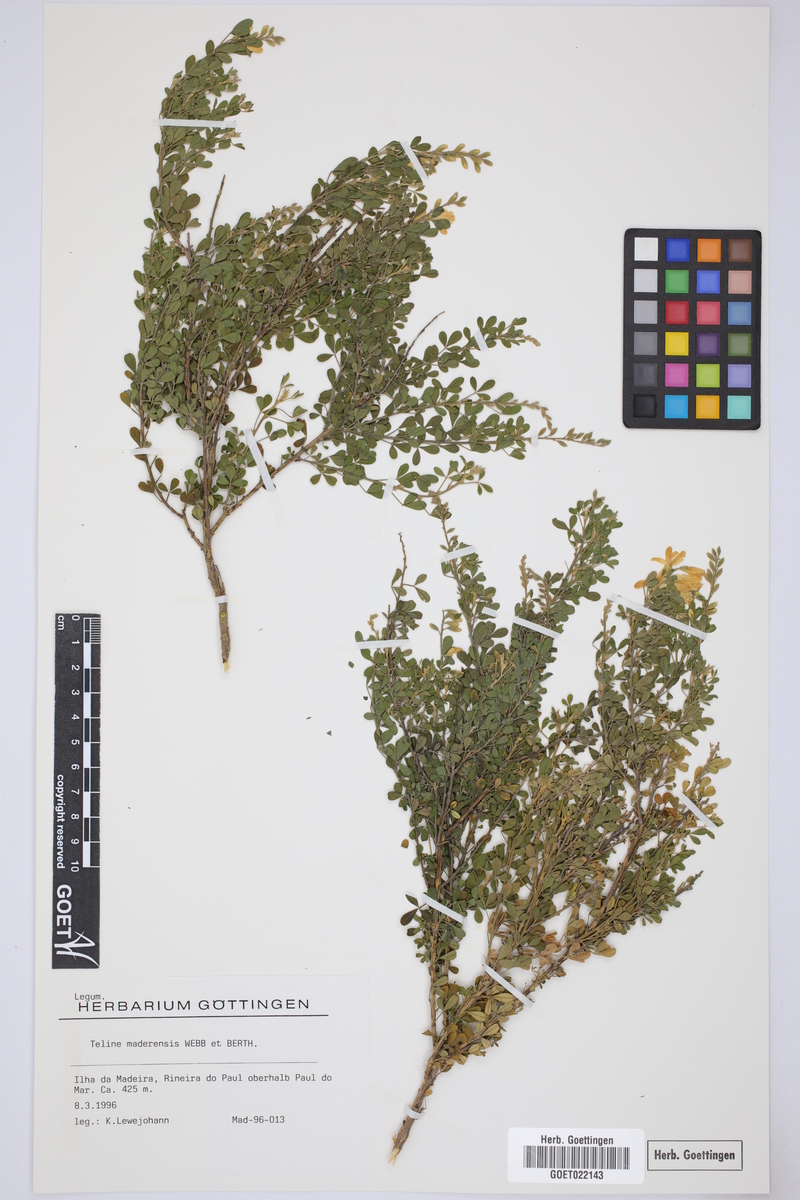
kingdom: Plantae
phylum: Tracheophyta
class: Magnoliopsida
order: Fabales
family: Fabaceae
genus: Genista
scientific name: Genista maderensis
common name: Madeira dyer's greenweed
